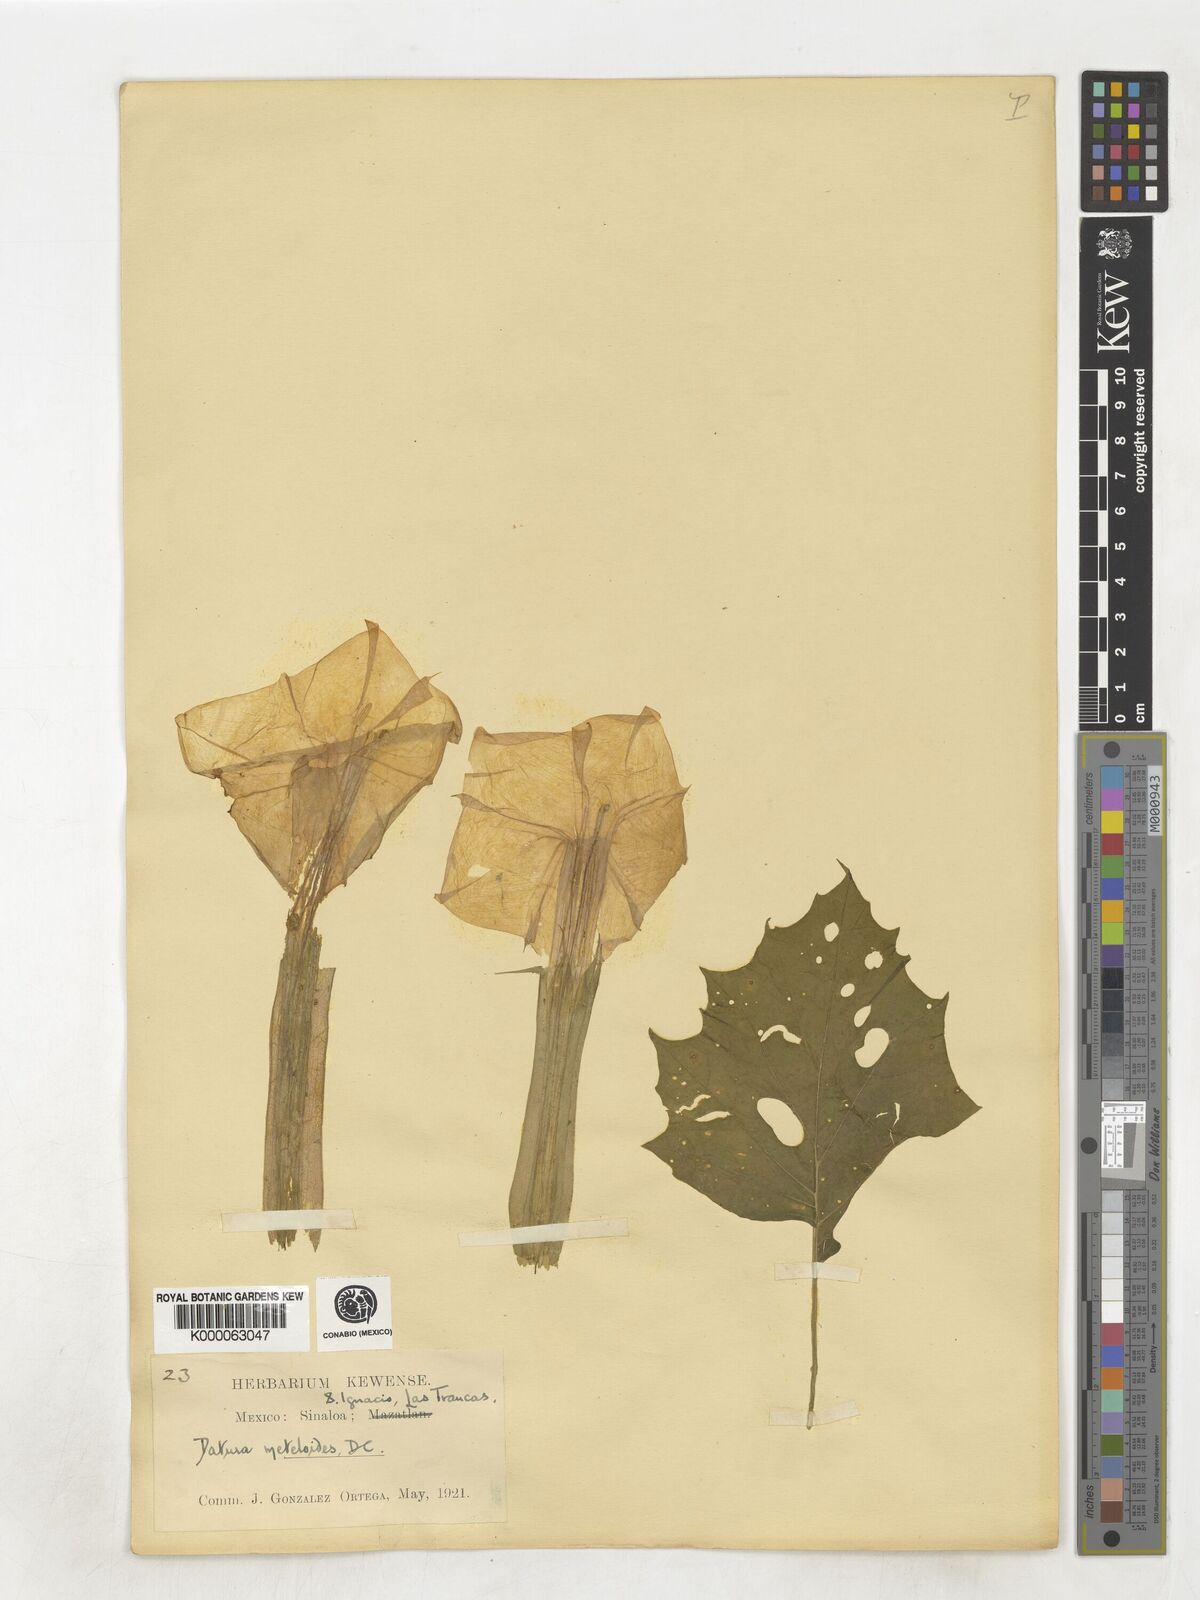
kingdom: Plantae
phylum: Tracheophyta
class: Magnoliopsida
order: Solanales
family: Solanaceae
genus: Datura
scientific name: Datura innoxia
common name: Downy thorn-apple
